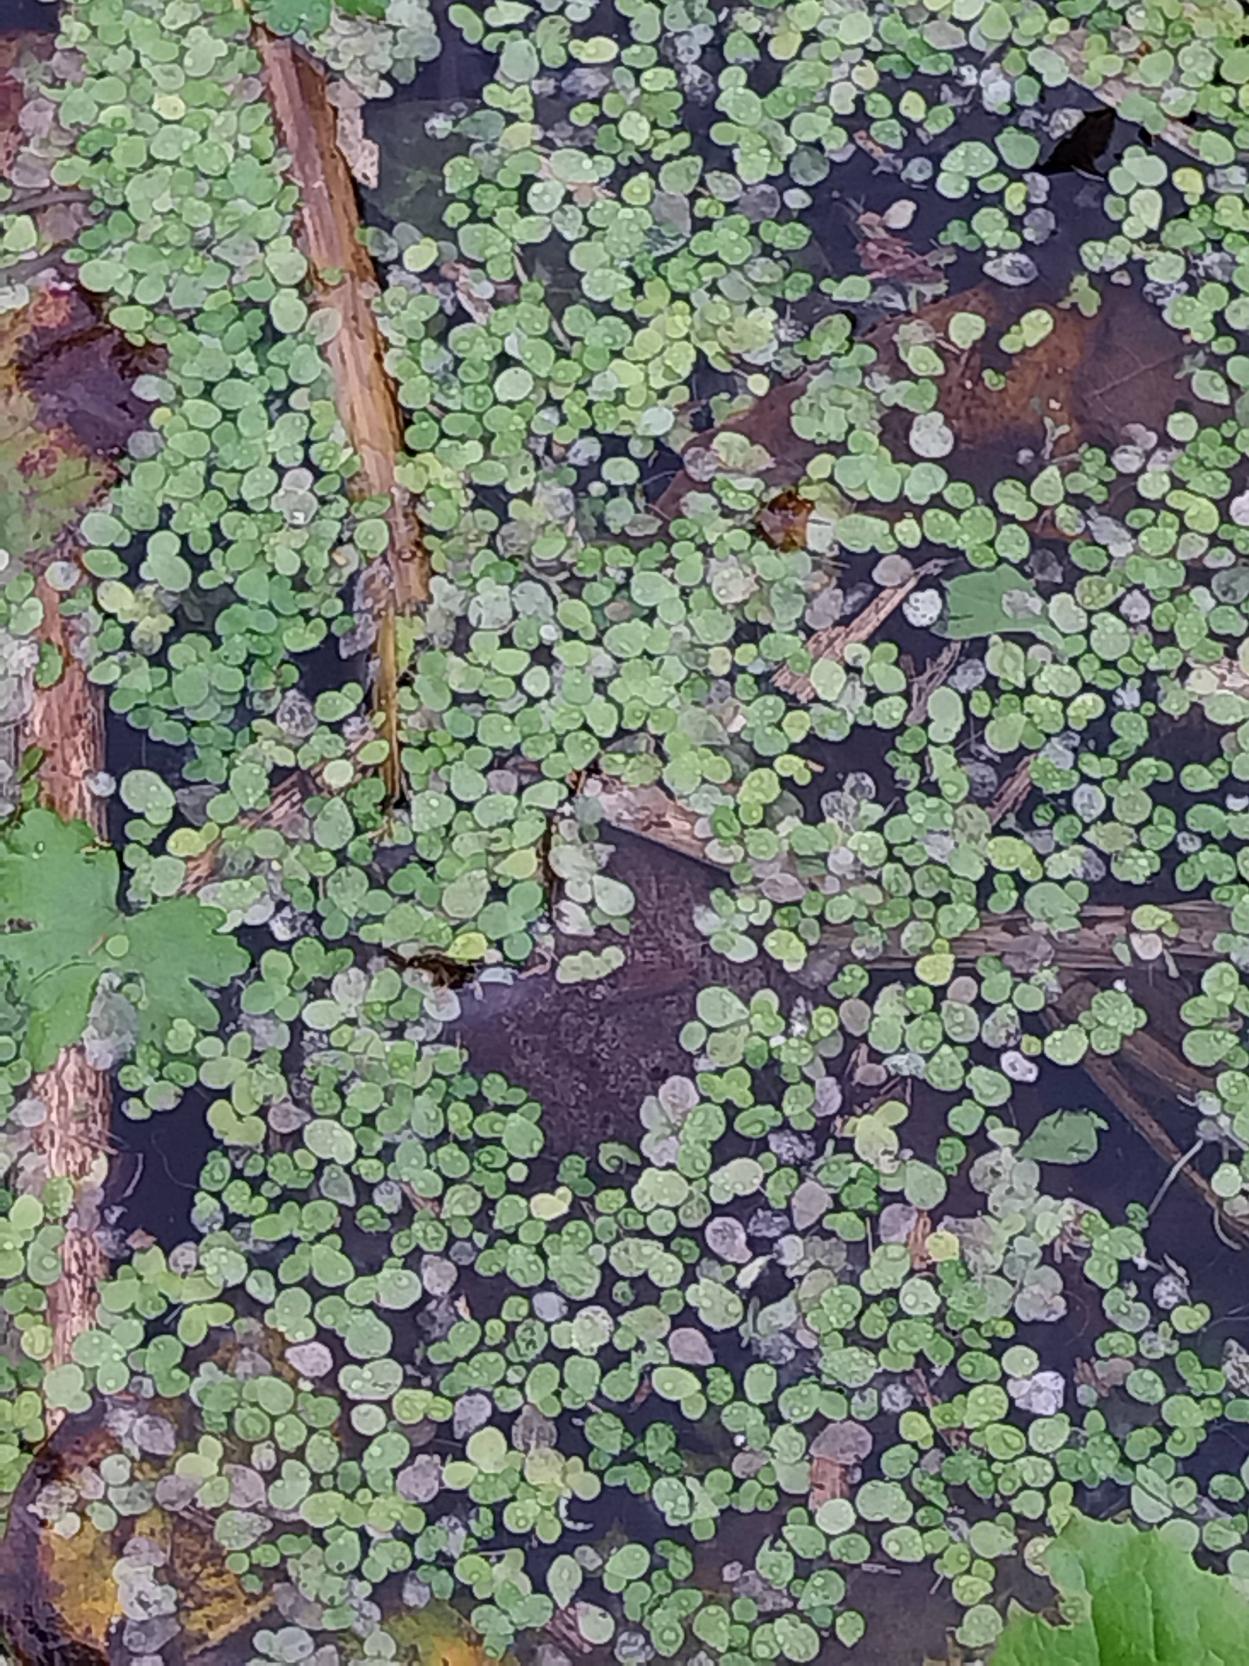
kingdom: Plantae
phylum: Tracheophyta
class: Liliopsida
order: Alismatales
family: Araceae
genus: Lemna
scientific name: Lemna minor
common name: Liden andemad
